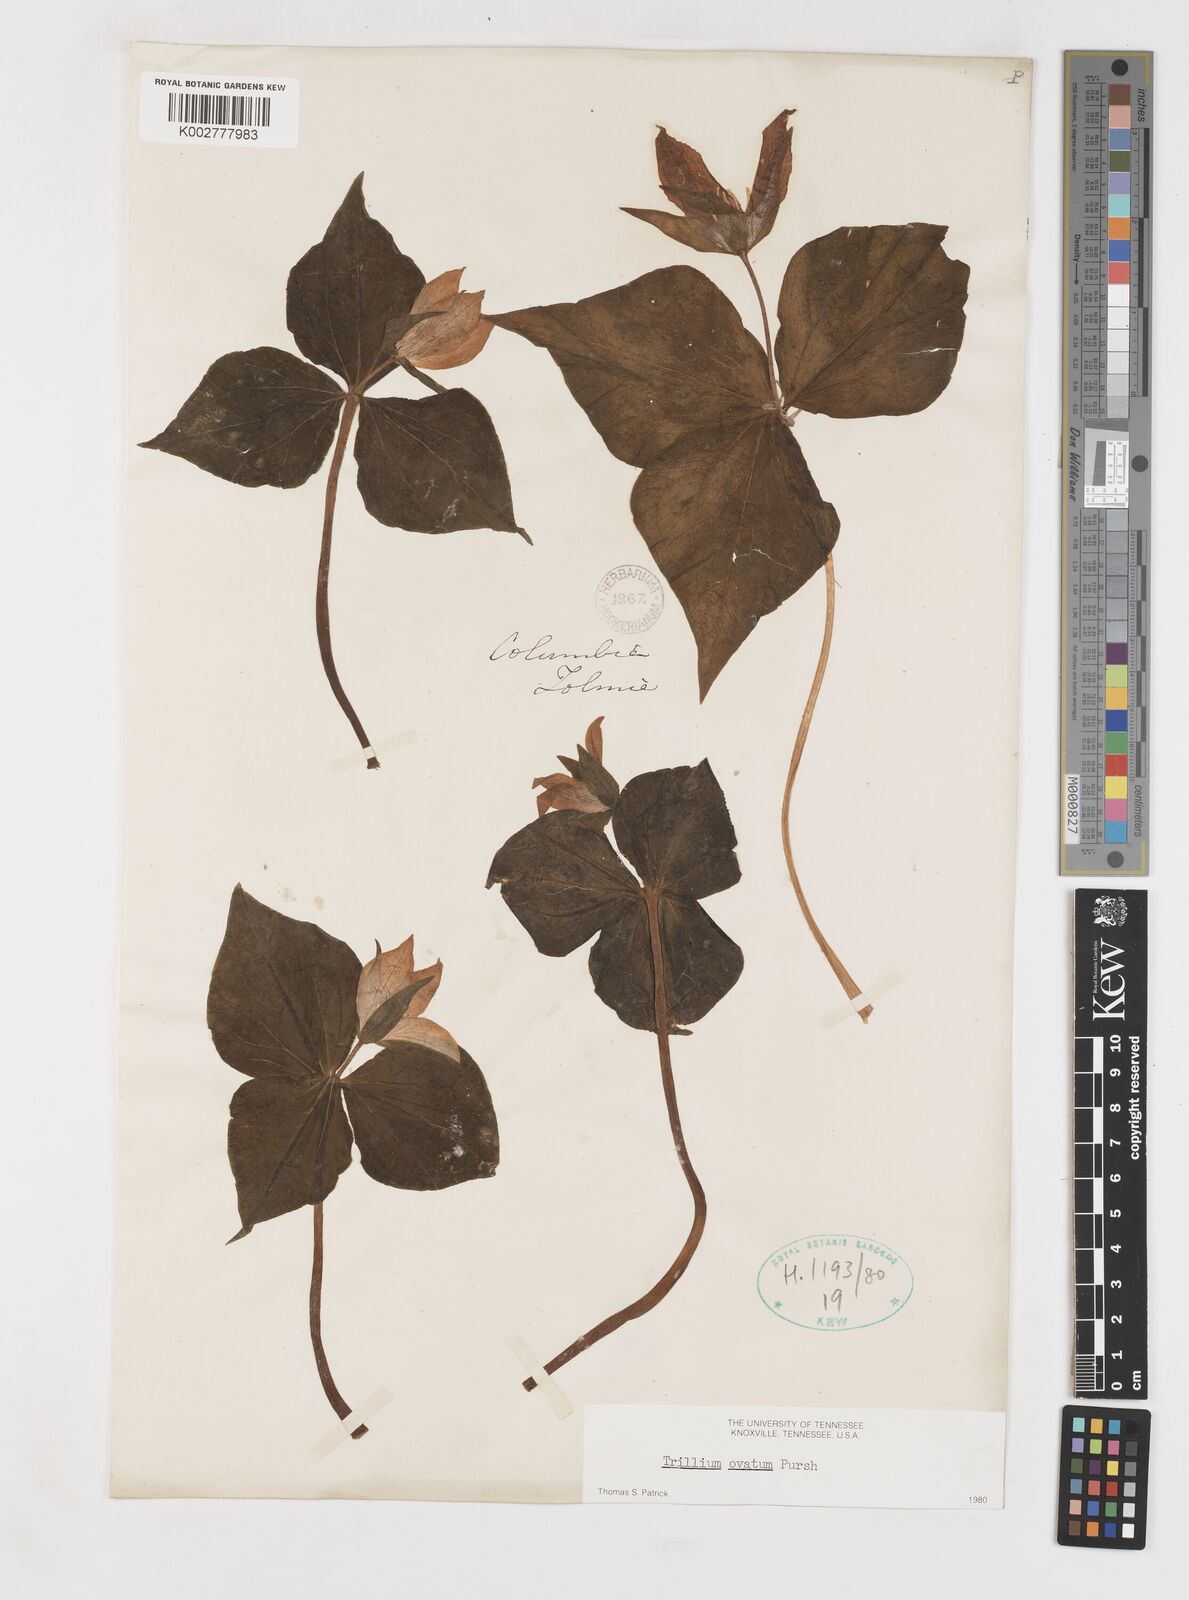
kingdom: Plantae
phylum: Tracheophyta
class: Liliopsida
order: Liliales
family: Melanthiaceae
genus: Trillium
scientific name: Trillium ovatum
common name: Pacific trillium
